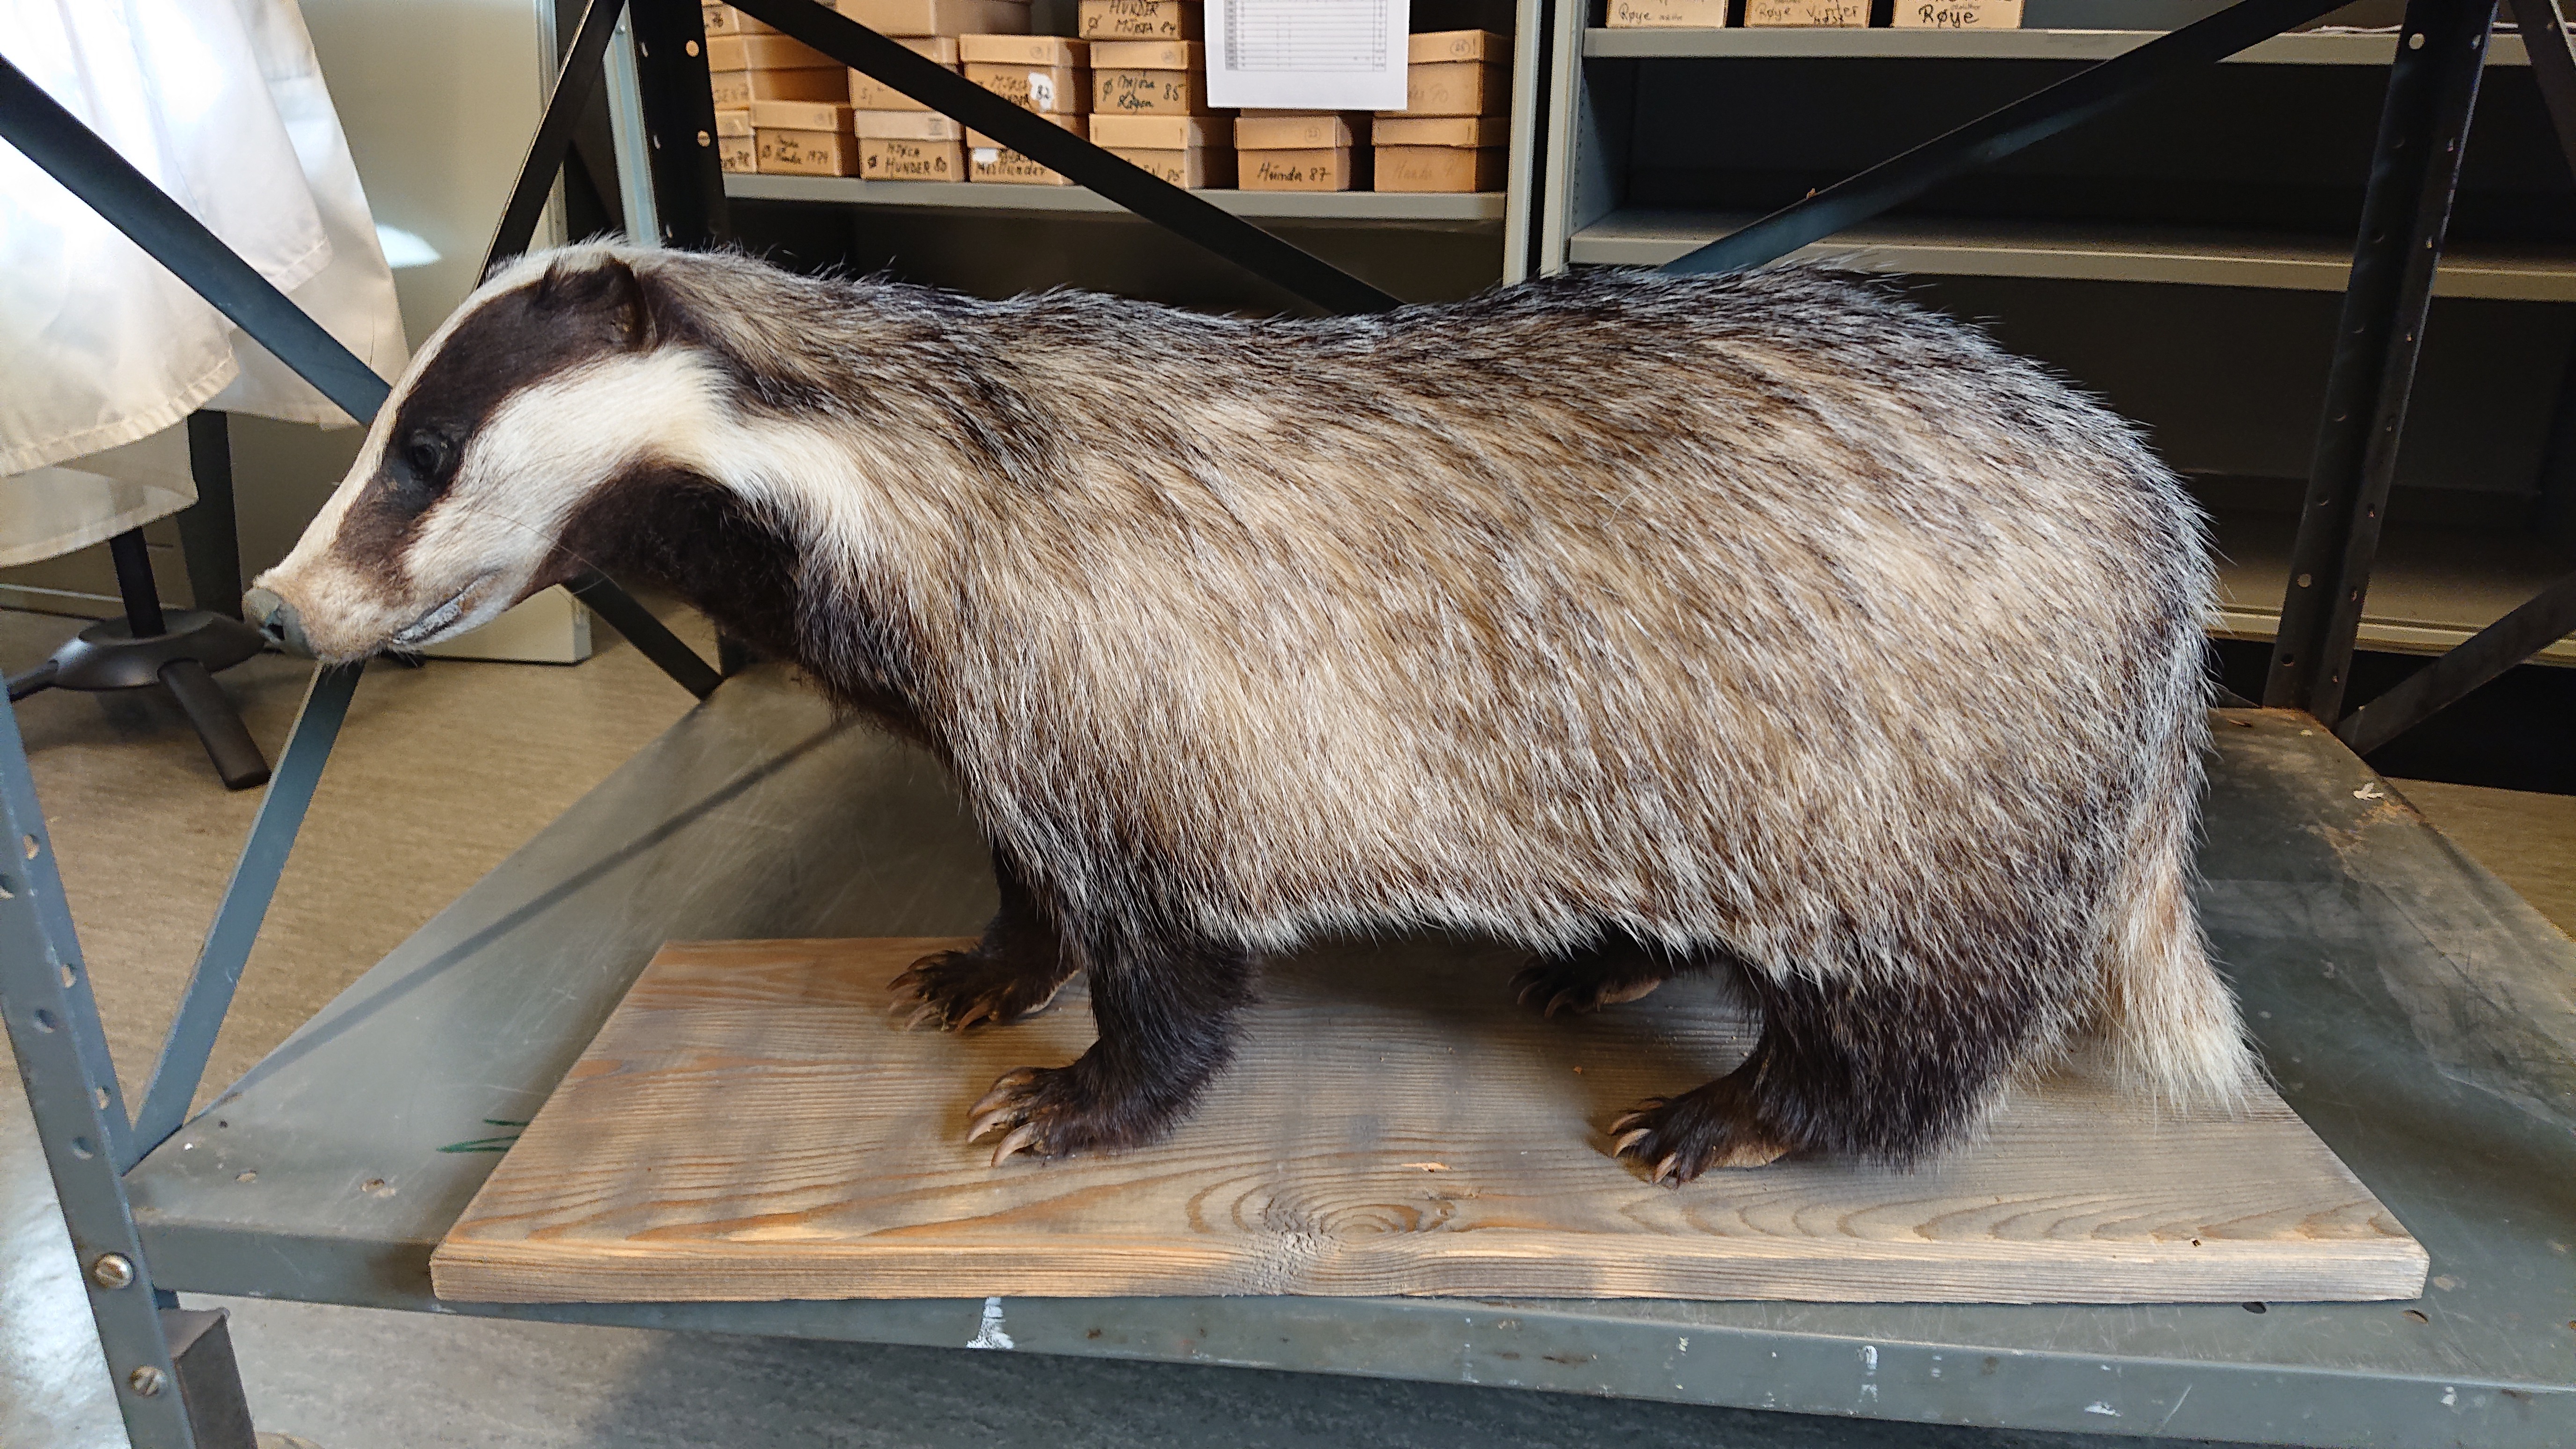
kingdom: Animalia
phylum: Chordata
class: Mammalia
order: Carnivora
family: Mustelidae
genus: Meles
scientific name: Meles meles
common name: Eurasian badger
